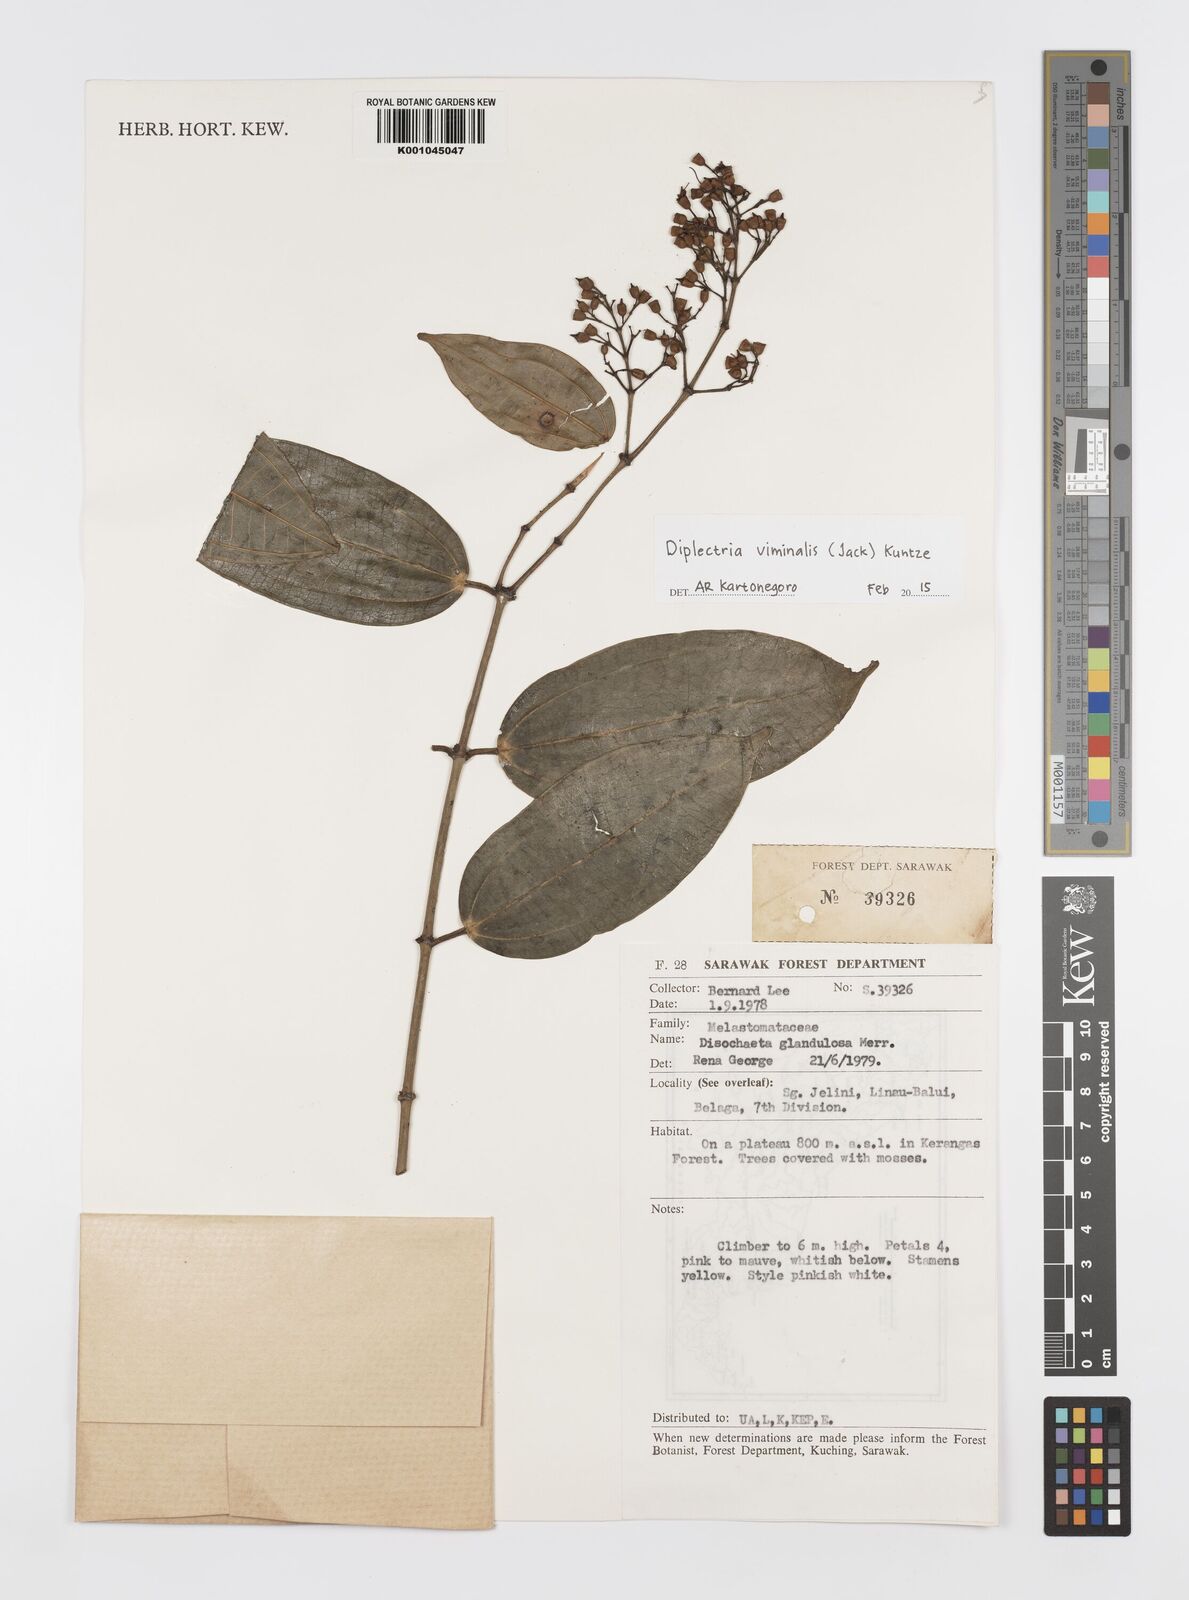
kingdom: Plantae
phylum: Tracheophyta
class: Magnoliopsida
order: Myrtales
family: Melastomataceae
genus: Diplectria
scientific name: Diplectria viminalis
